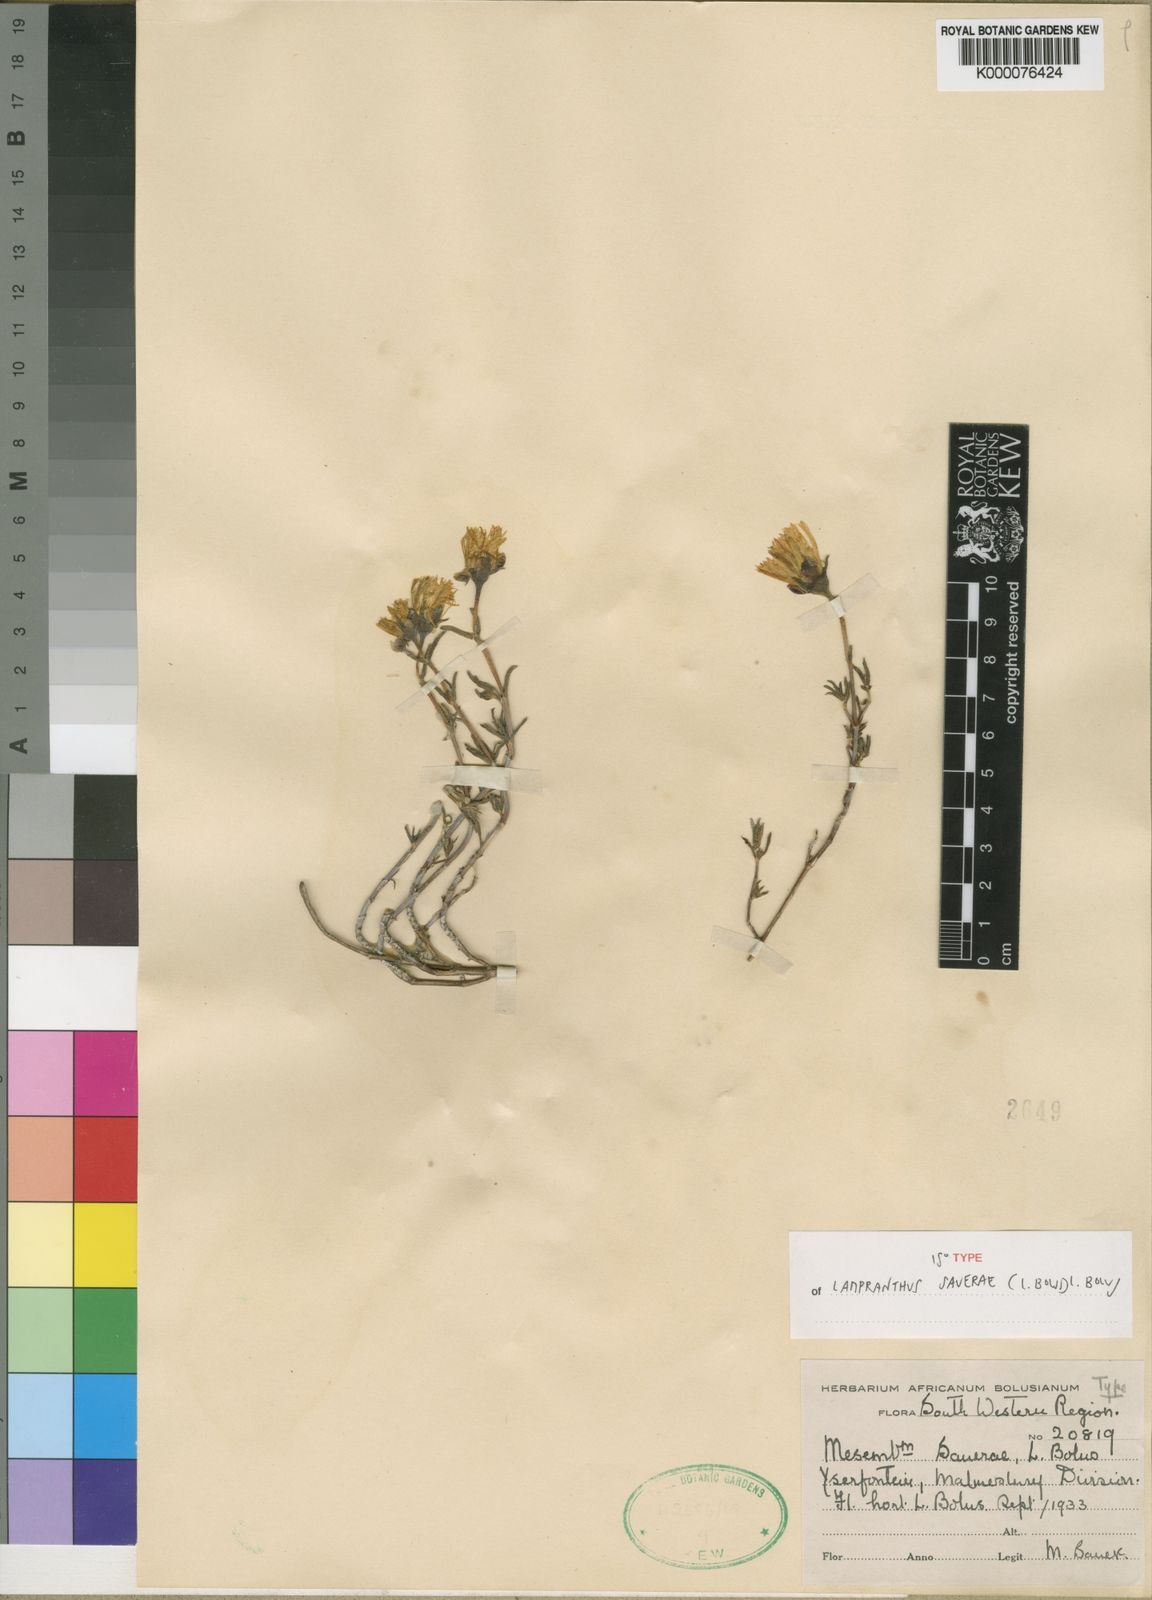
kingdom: Plantae
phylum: Tracheophyta
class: Magnoliopsida
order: Caryophyllales
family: Aizoaceae
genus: Lampranthus
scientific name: Lampranthus sauerae
